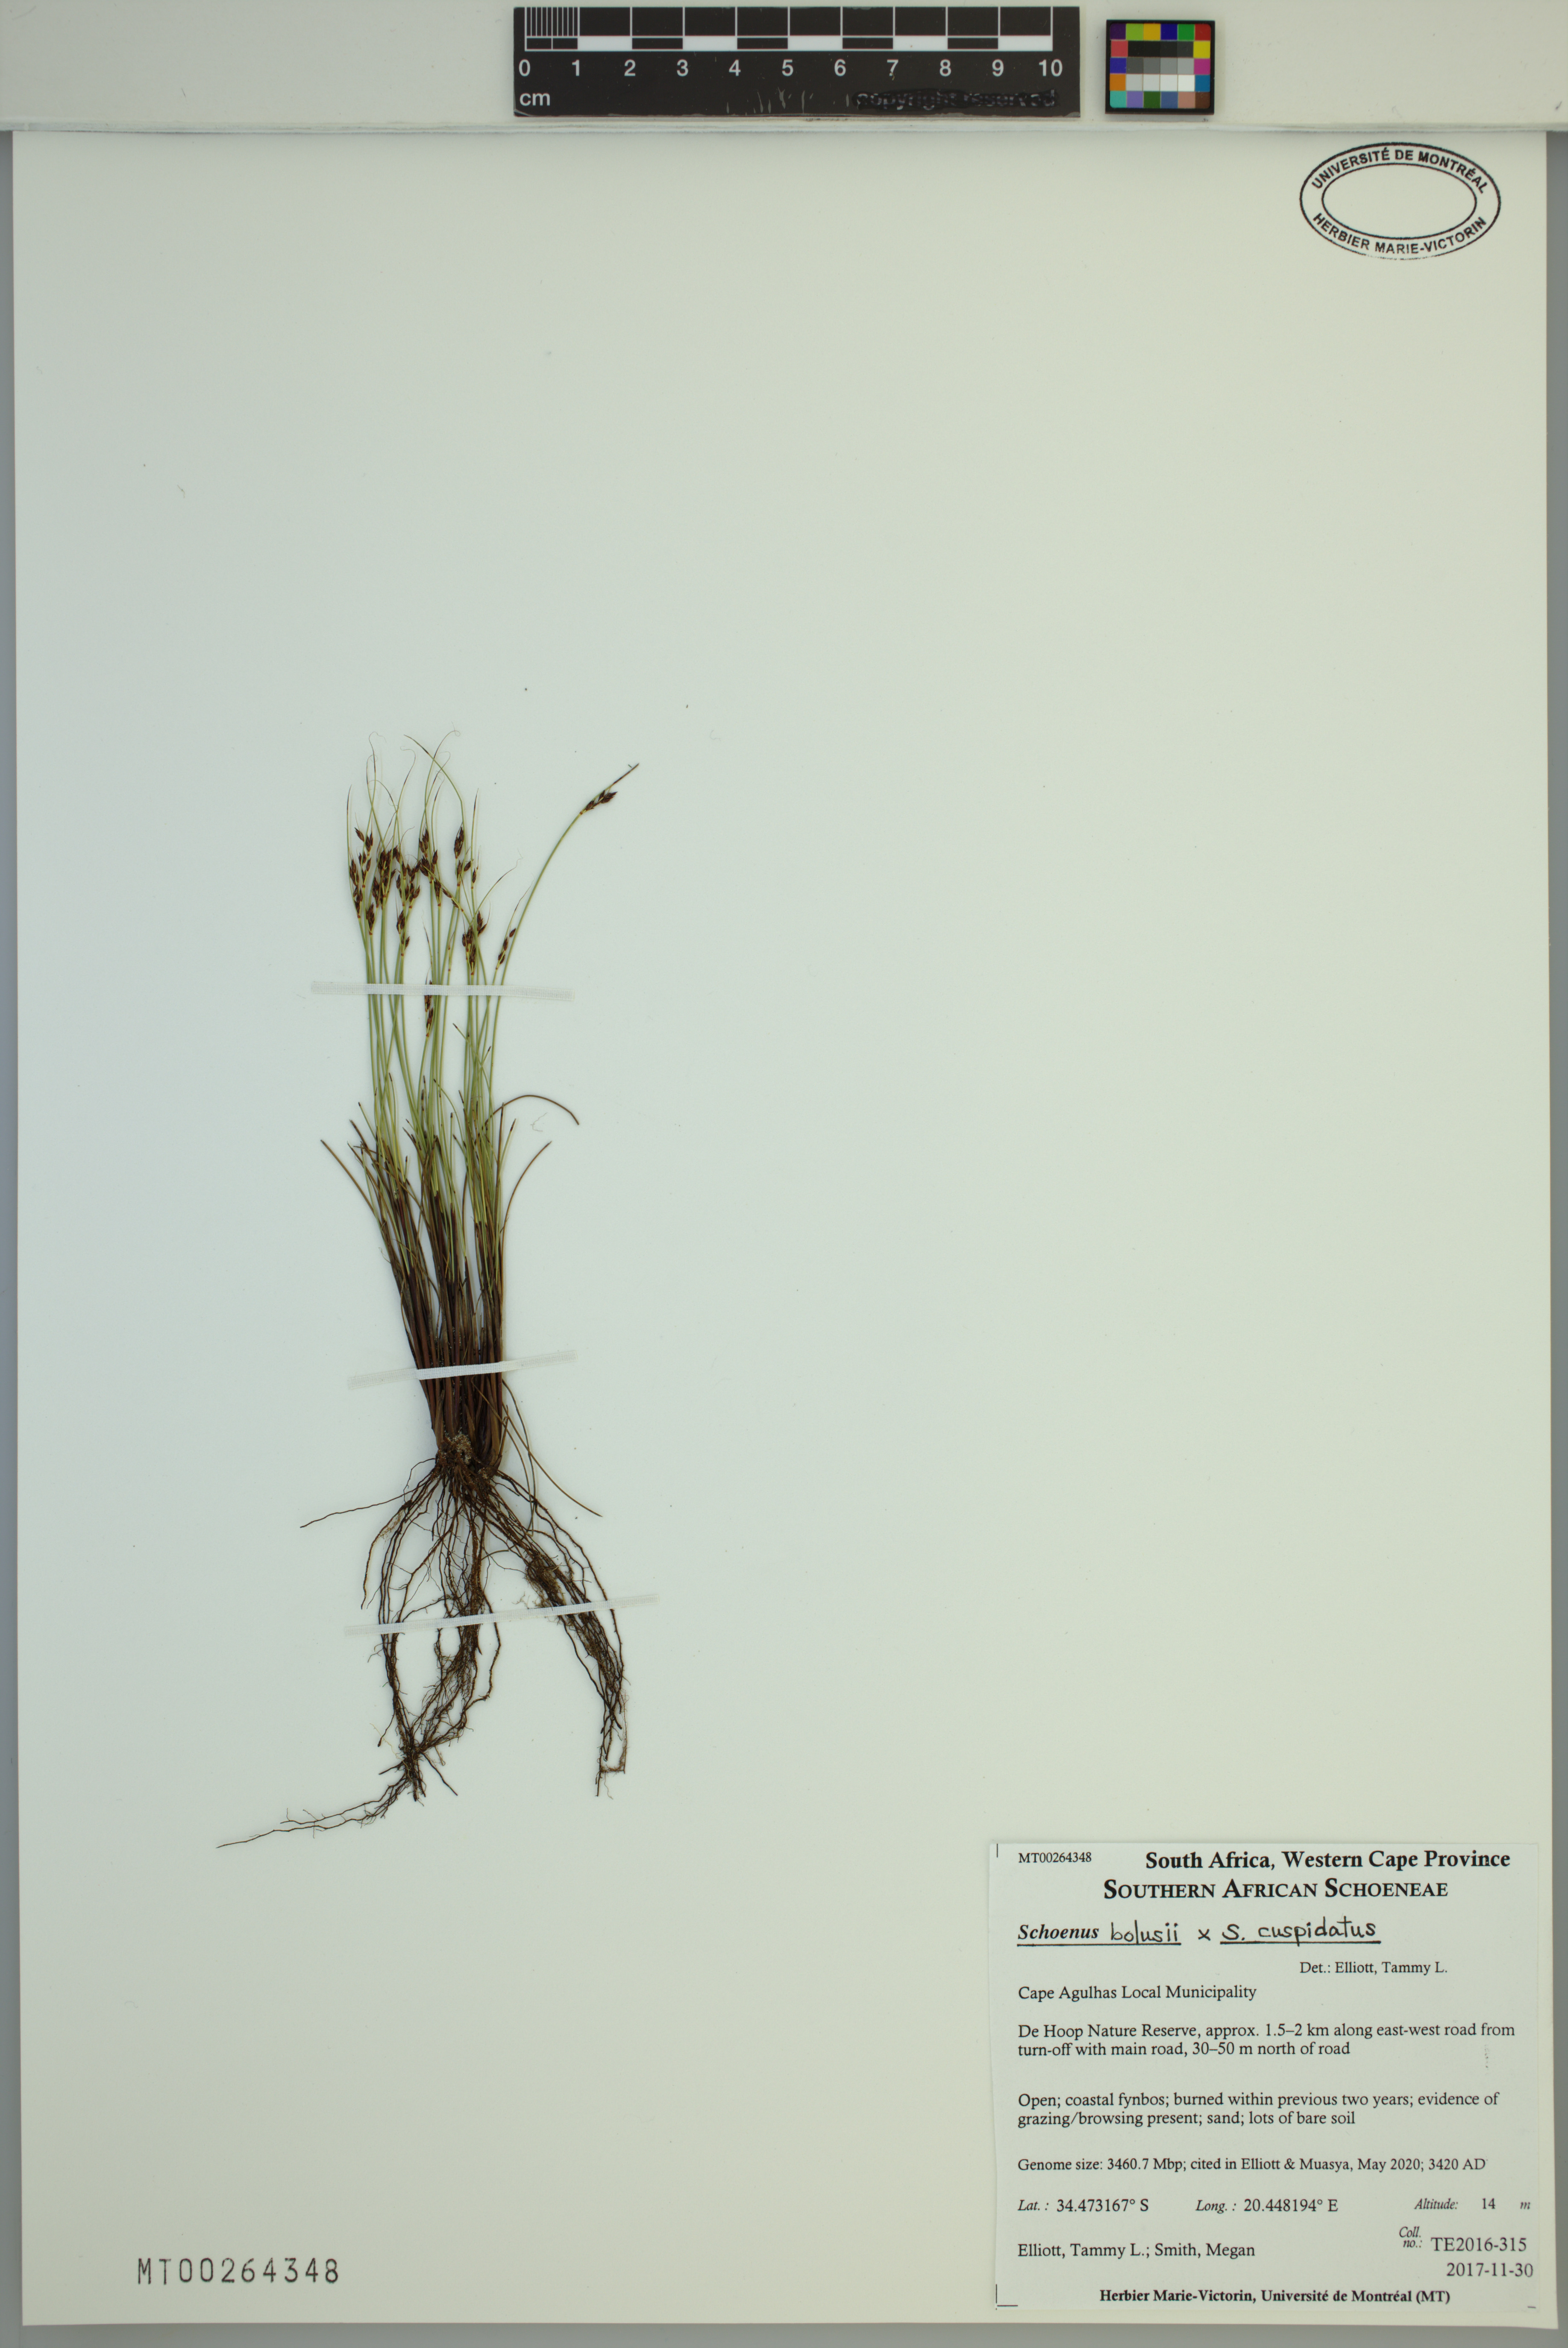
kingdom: Plantae
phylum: Tracheophyta
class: Liliopsida
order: Poales
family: Cyperaceae
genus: Schoenus
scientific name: Schoenus bolusii
